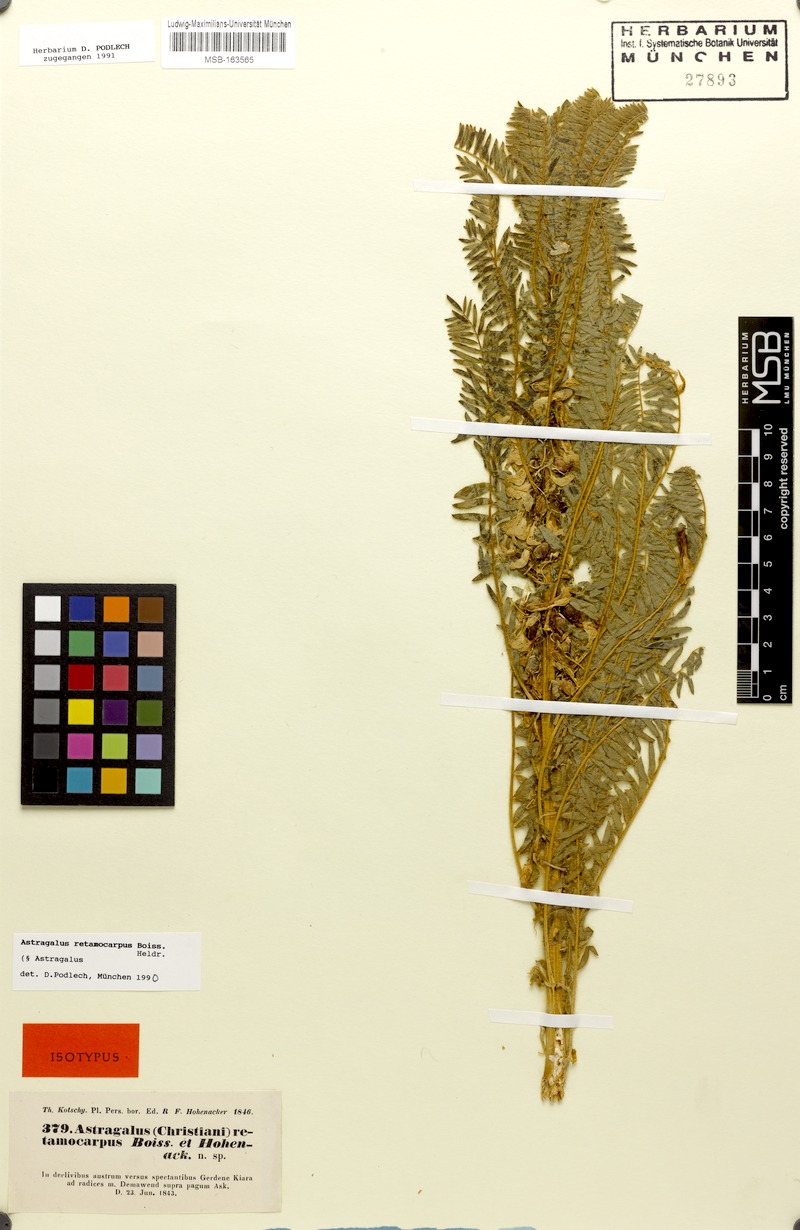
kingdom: Plantae
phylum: Tracheophyta
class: Magnoliopsida
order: Fabales
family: Fabaceae
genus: Astragalus
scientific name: Astragalus retamocarpus
